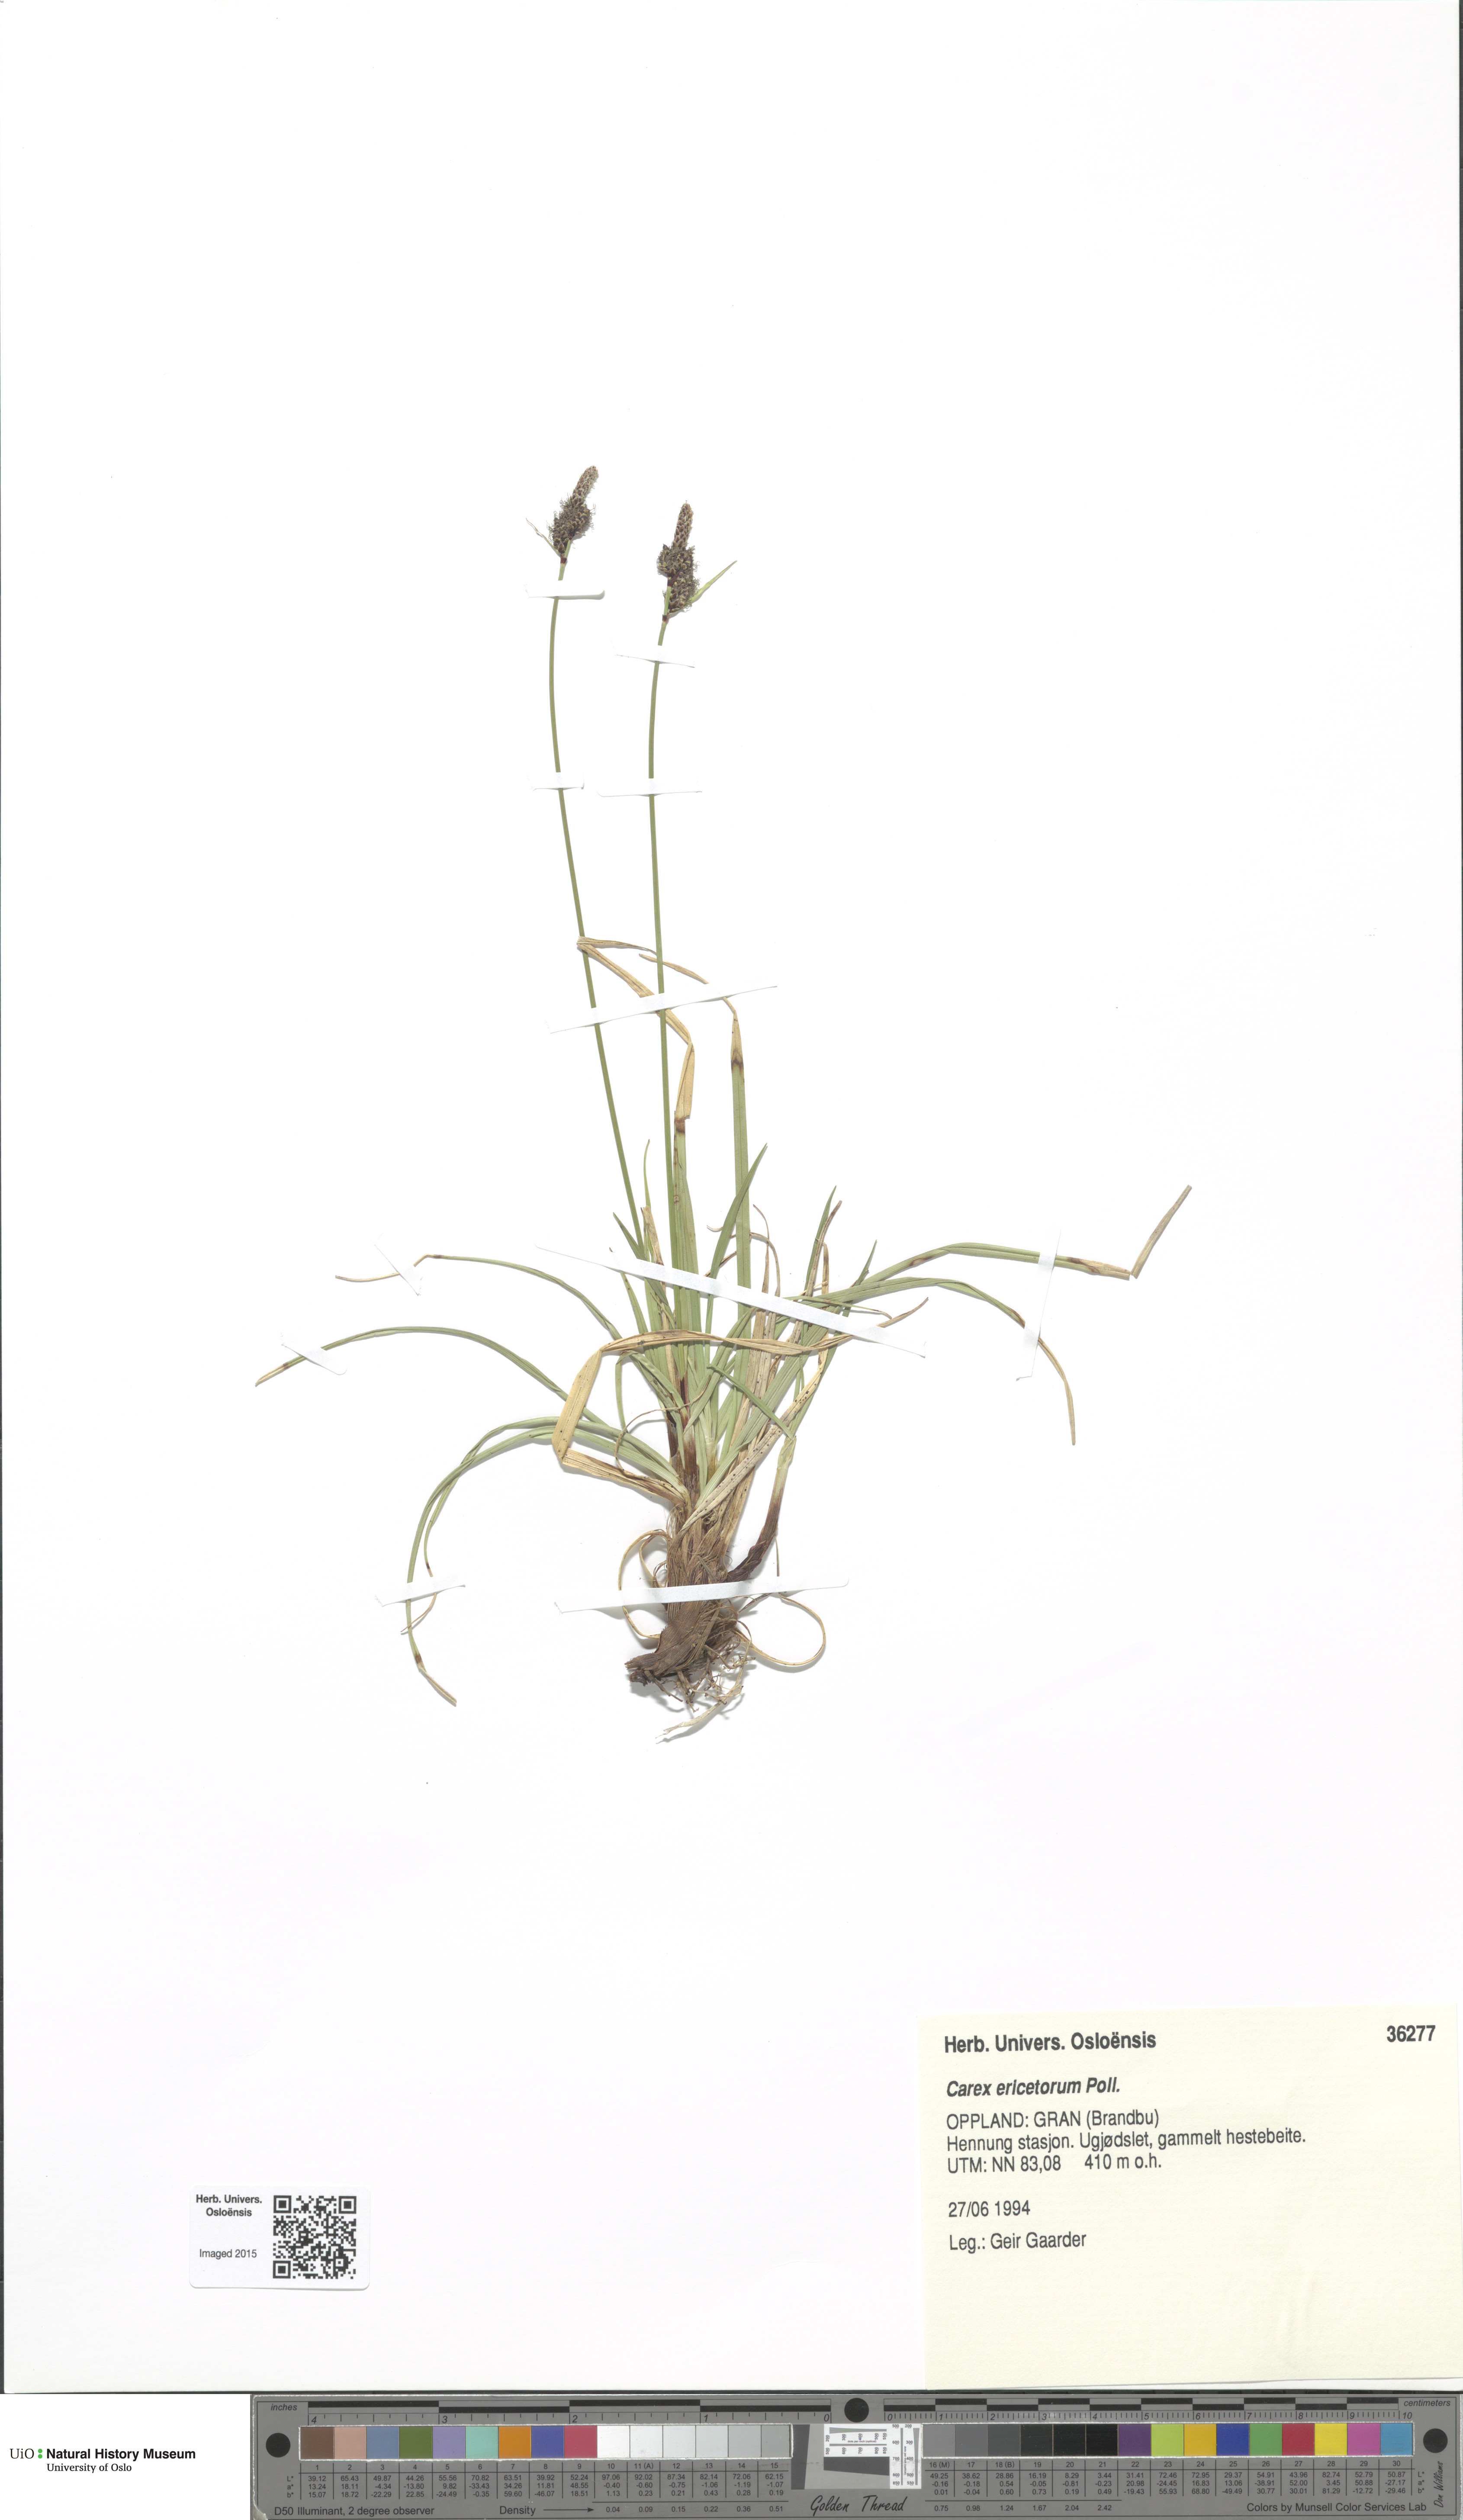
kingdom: Plantae
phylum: Tracheophyta
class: Liliopsida
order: Poales
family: Cyperaceae
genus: Carex
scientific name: Carex ericetorum
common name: Rare spring-sedge
